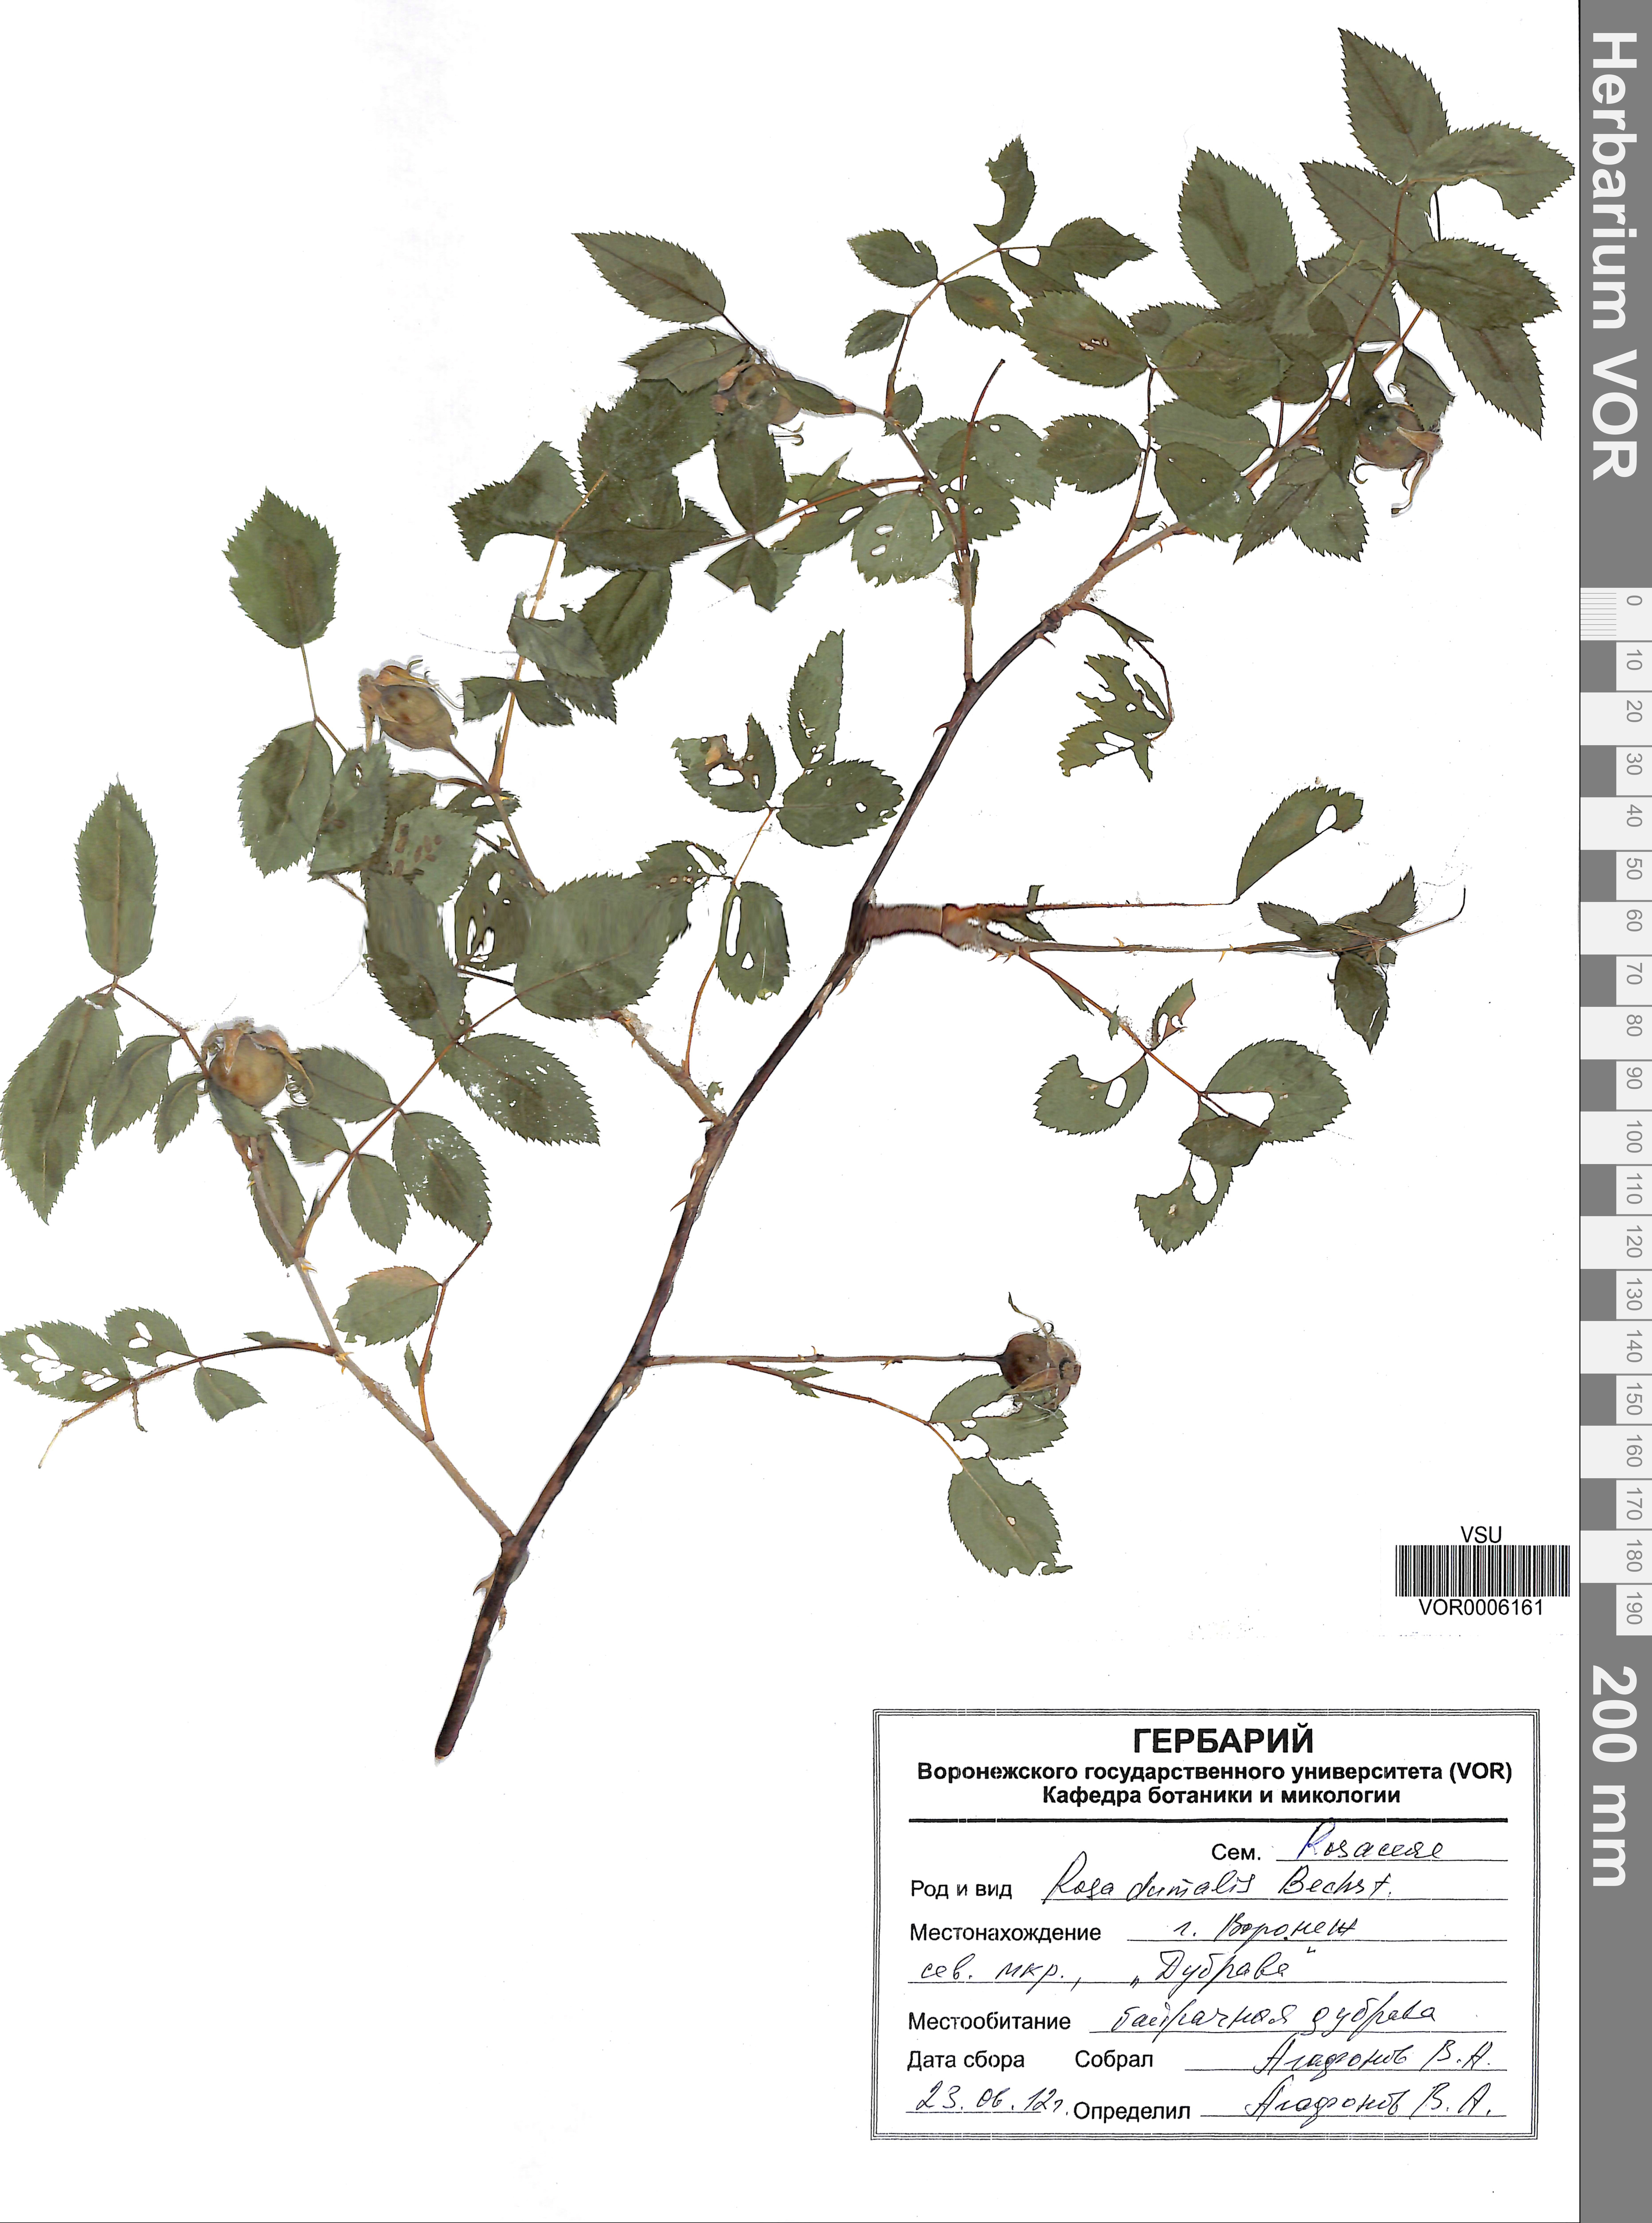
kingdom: Plantae
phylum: Tracheophyta
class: Magnoliopsida
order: Rosales
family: Rosaceae
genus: Rosa
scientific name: Rosa dumalis
